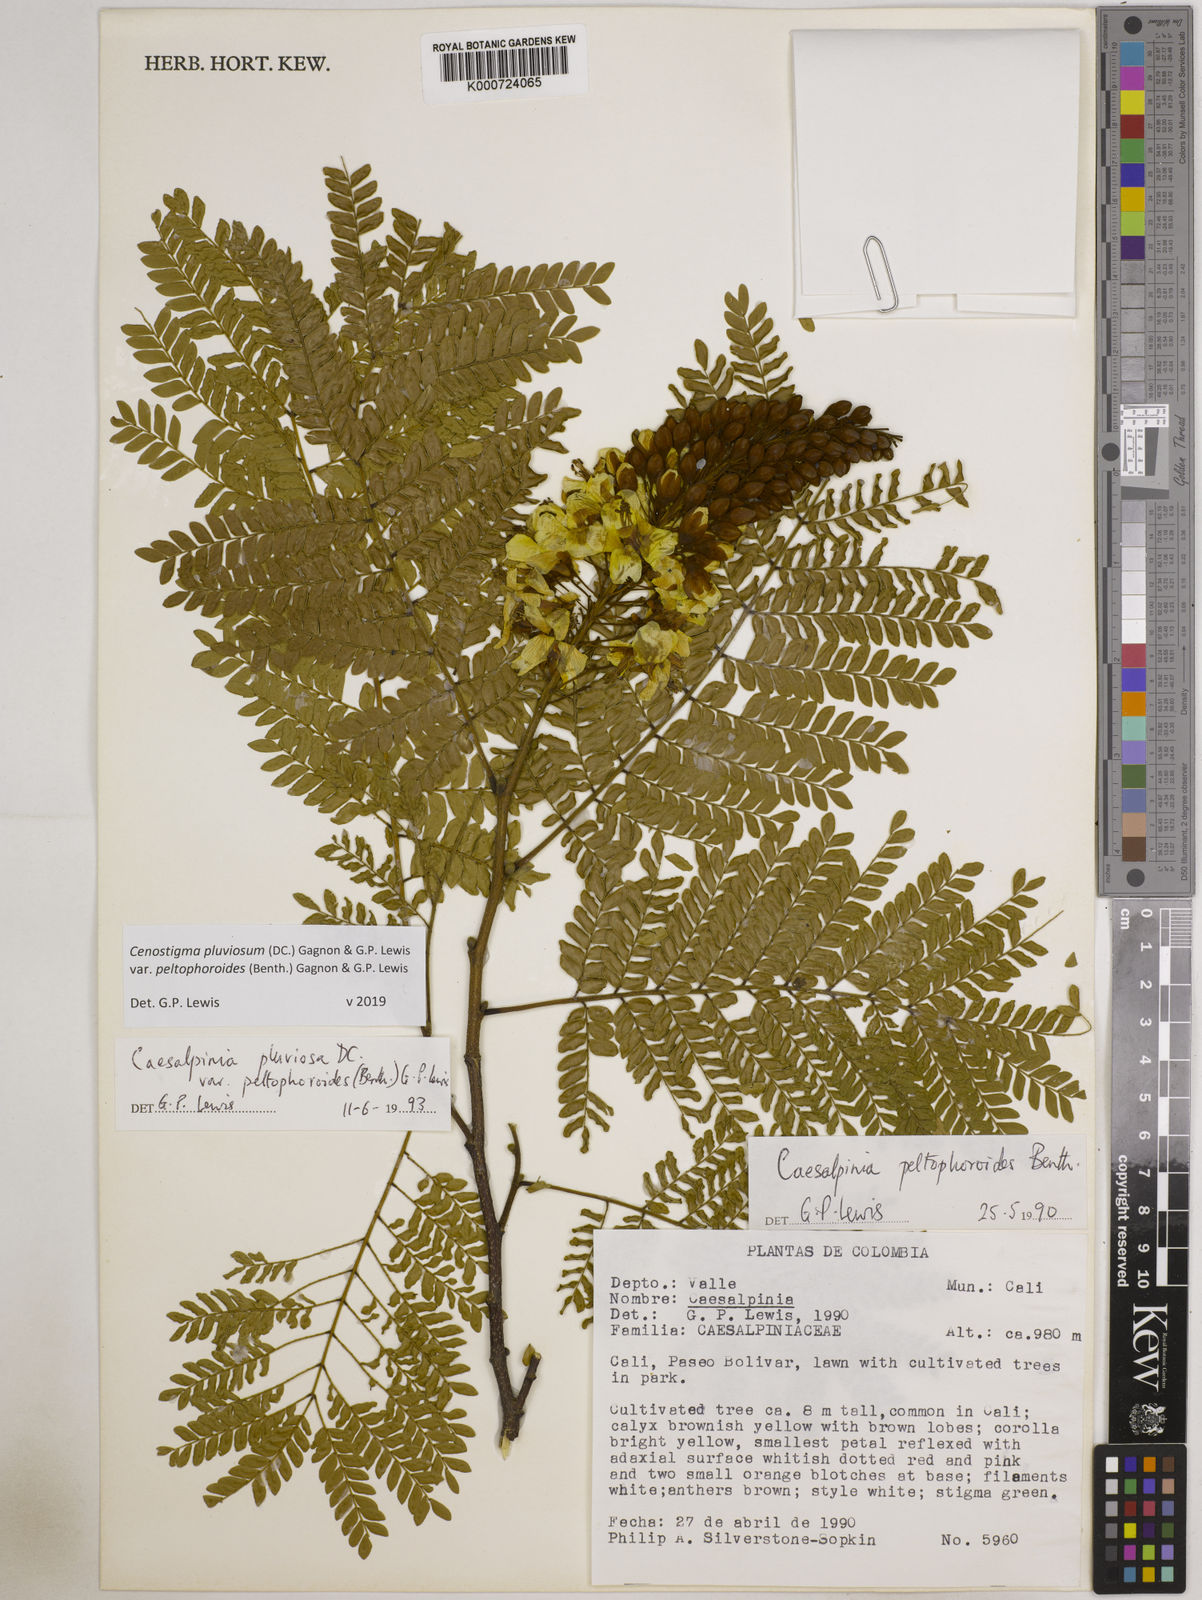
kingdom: Plantae
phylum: Tracheophyta
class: Magnoliopsida
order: Fabales
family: Fabaceae
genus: Cenostigma
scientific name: Cenostigma pluviosum
